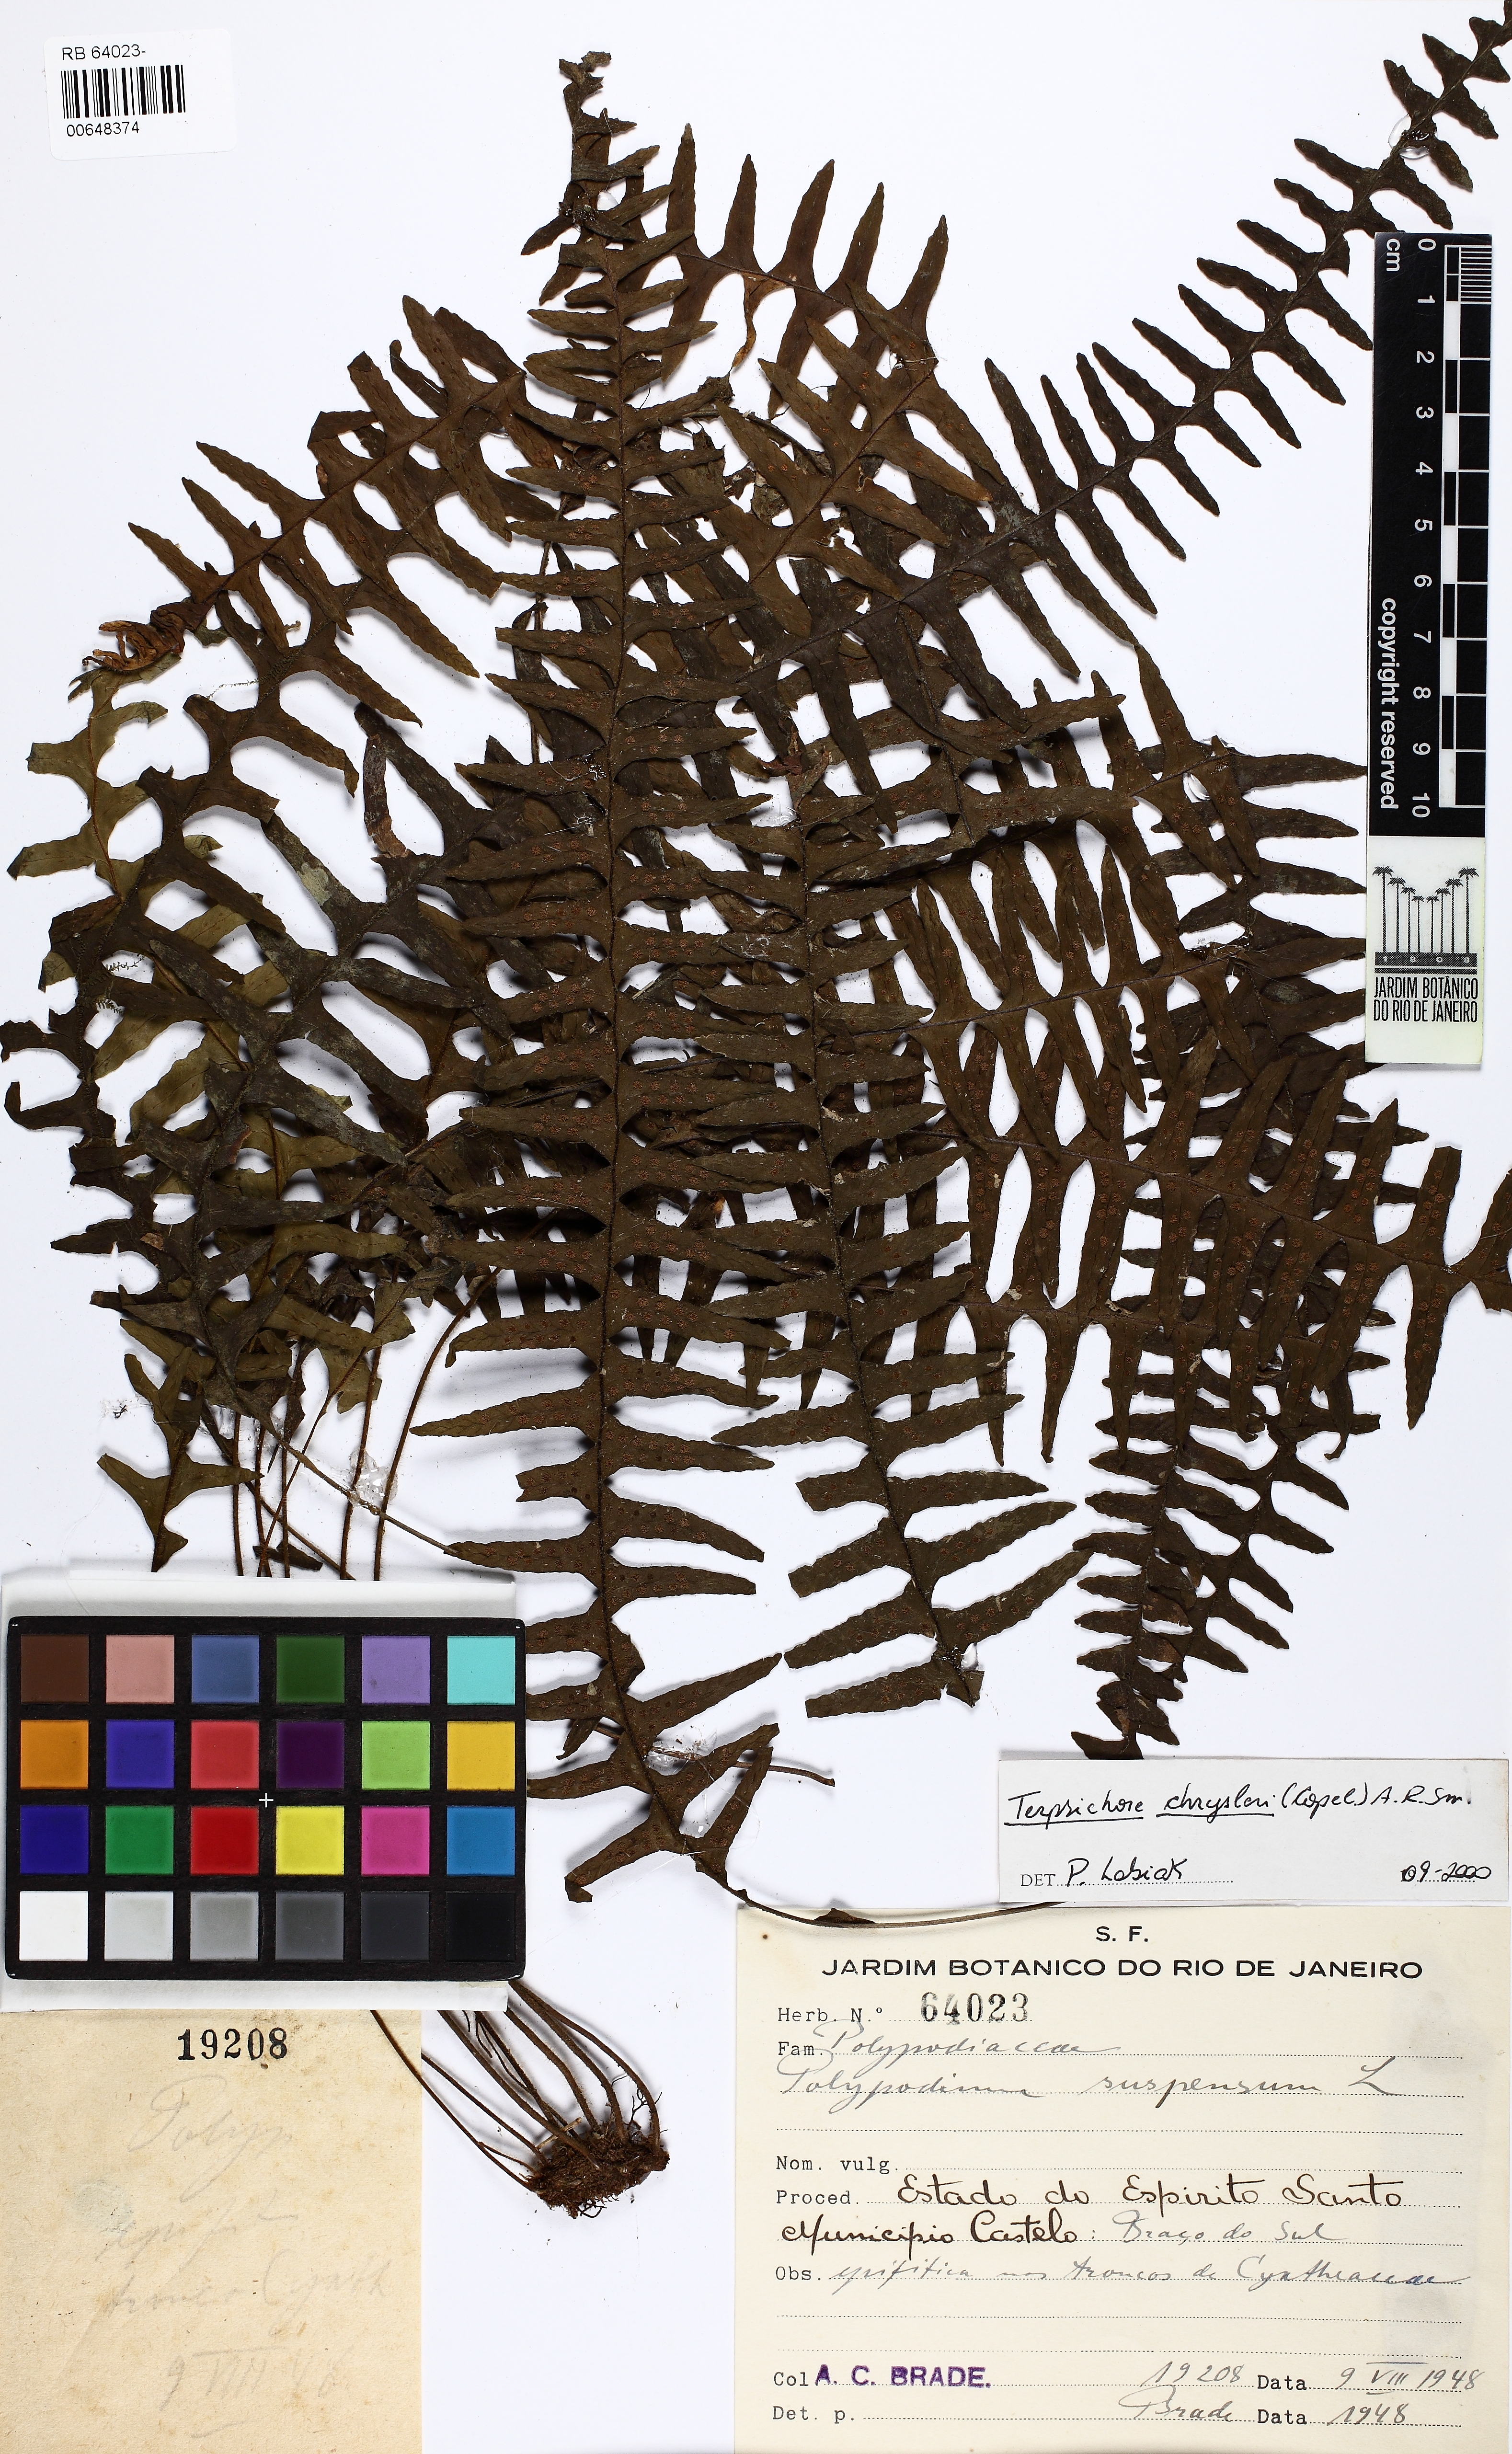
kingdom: Plantae
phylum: Tracheophyta
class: Polypodiopsida
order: Polypodiales
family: Polypodiaceae
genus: Terpsichore
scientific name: Terpsichore chrysleri
